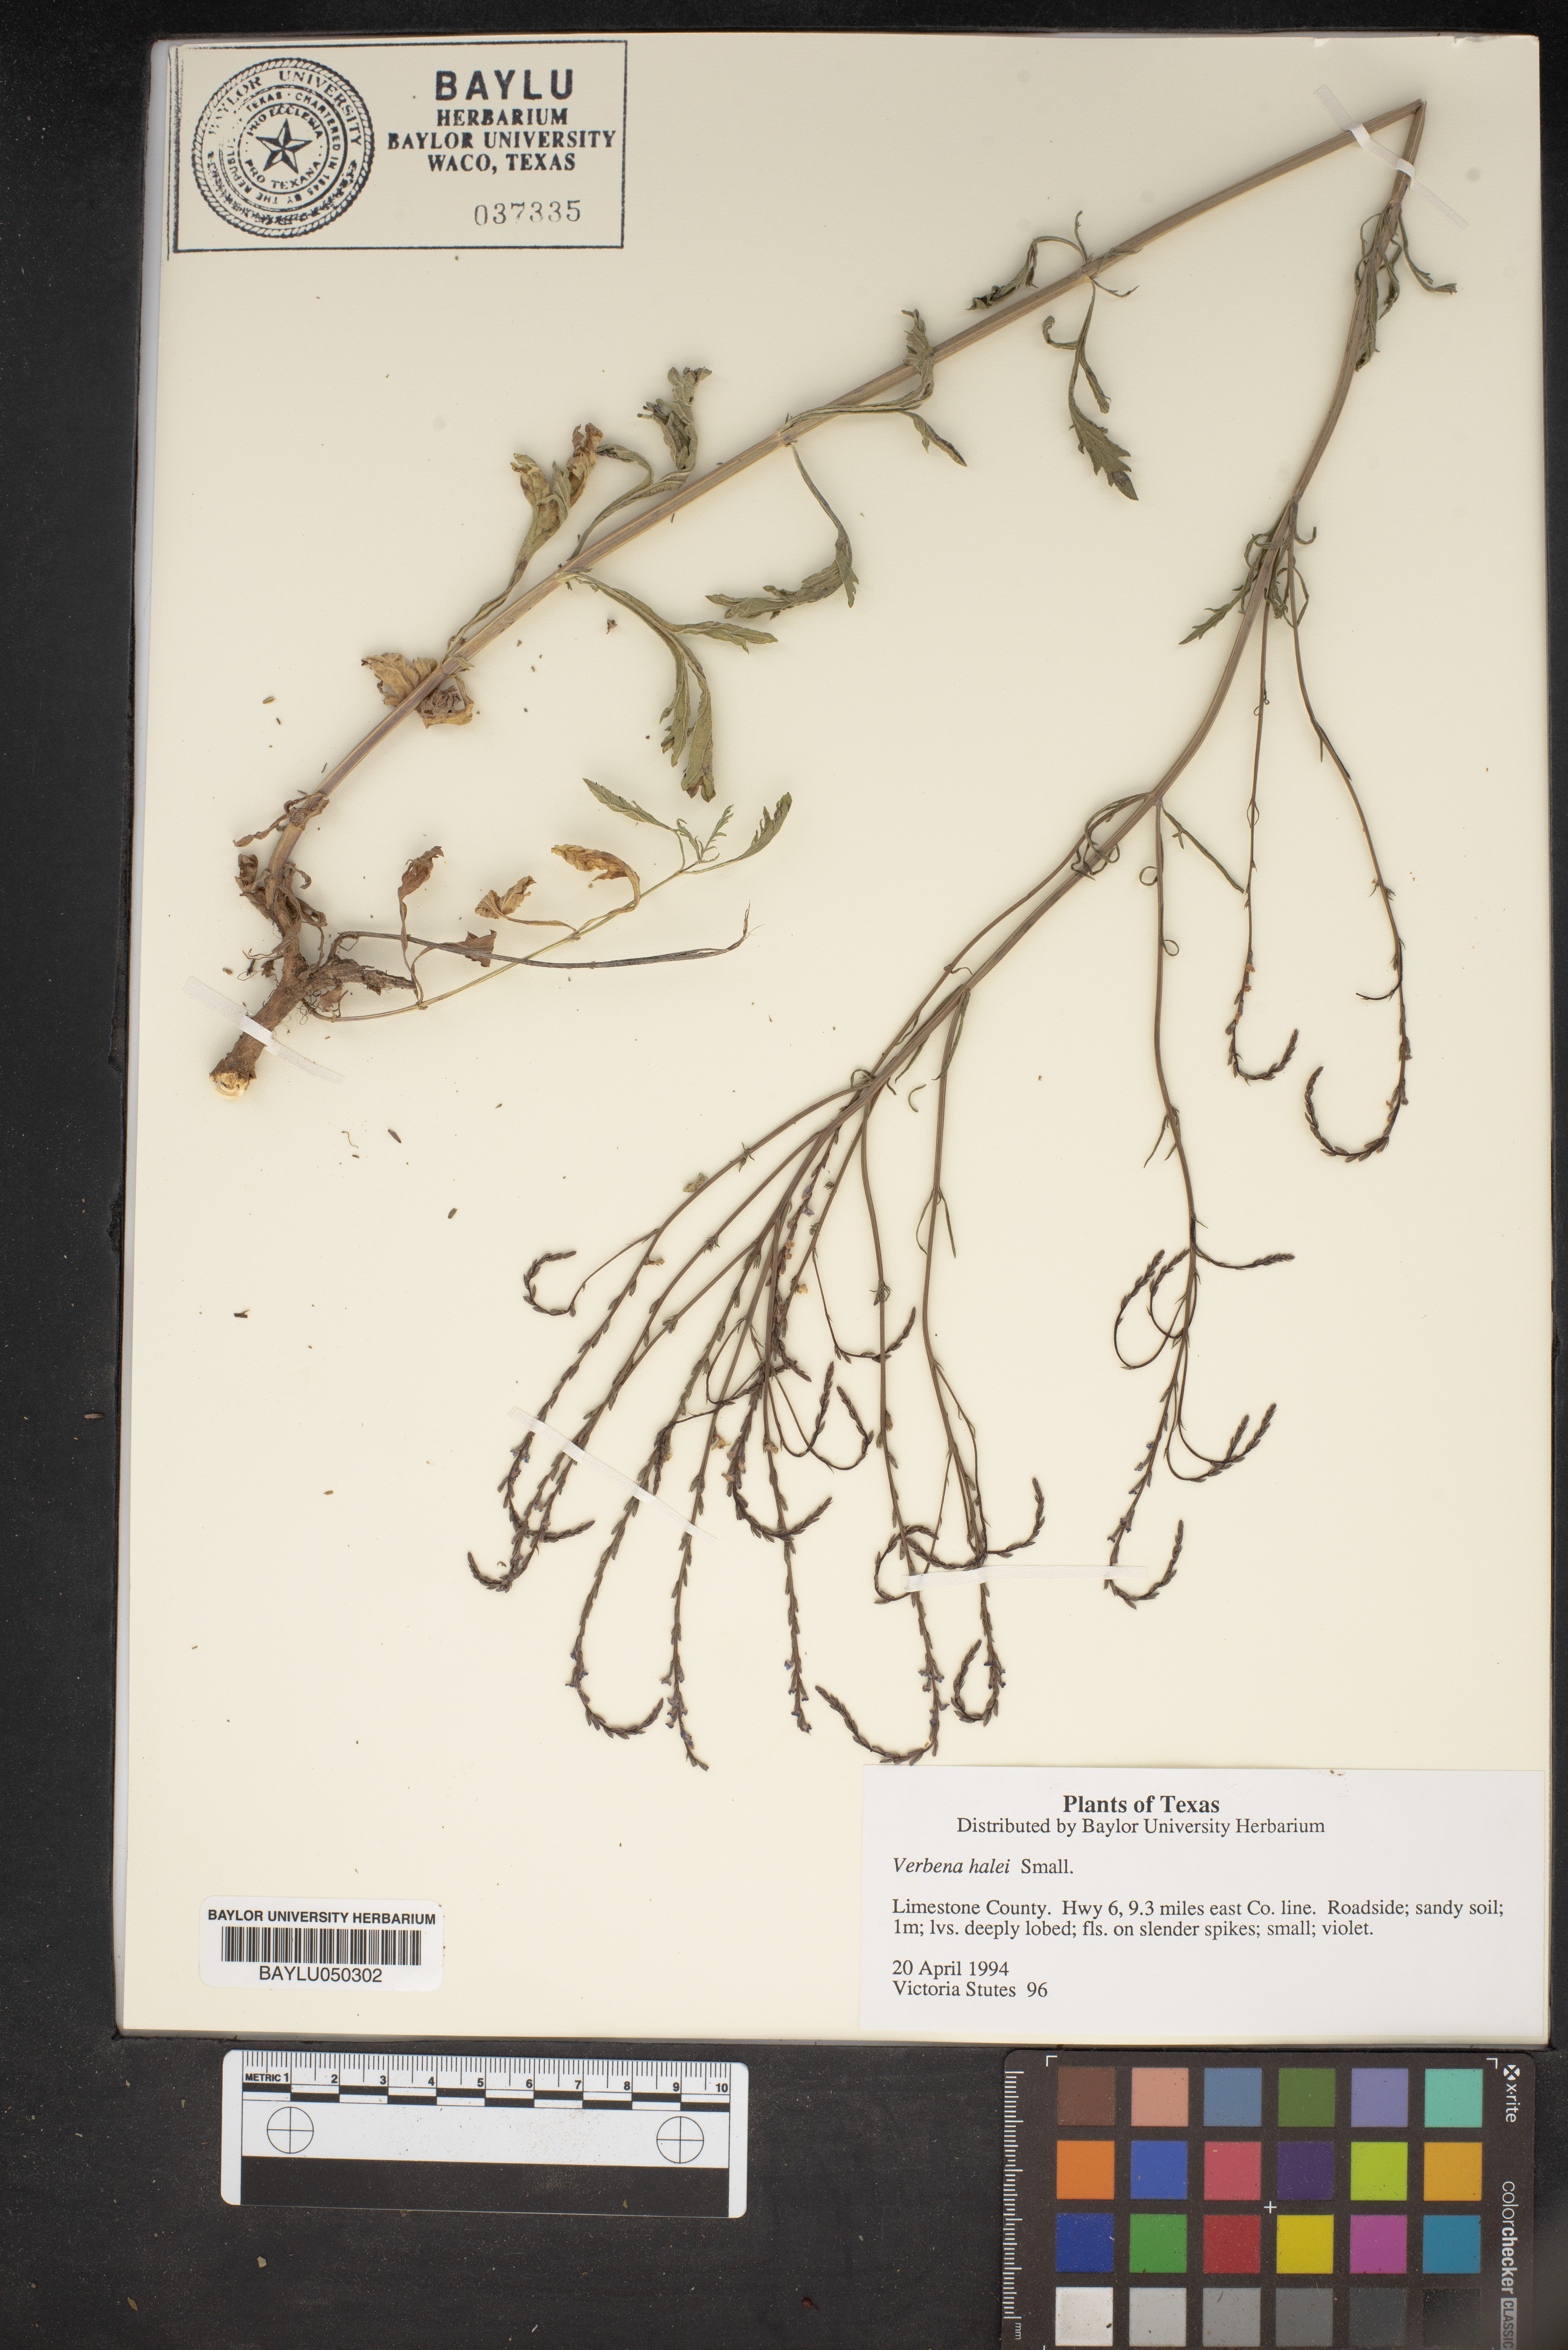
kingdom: Plantae
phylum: Tracheophyta
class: Magnoliopsida
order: Lamiales
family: Verbenaceae
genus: Verbena
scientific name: Verbena halei
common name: Texas vervain
